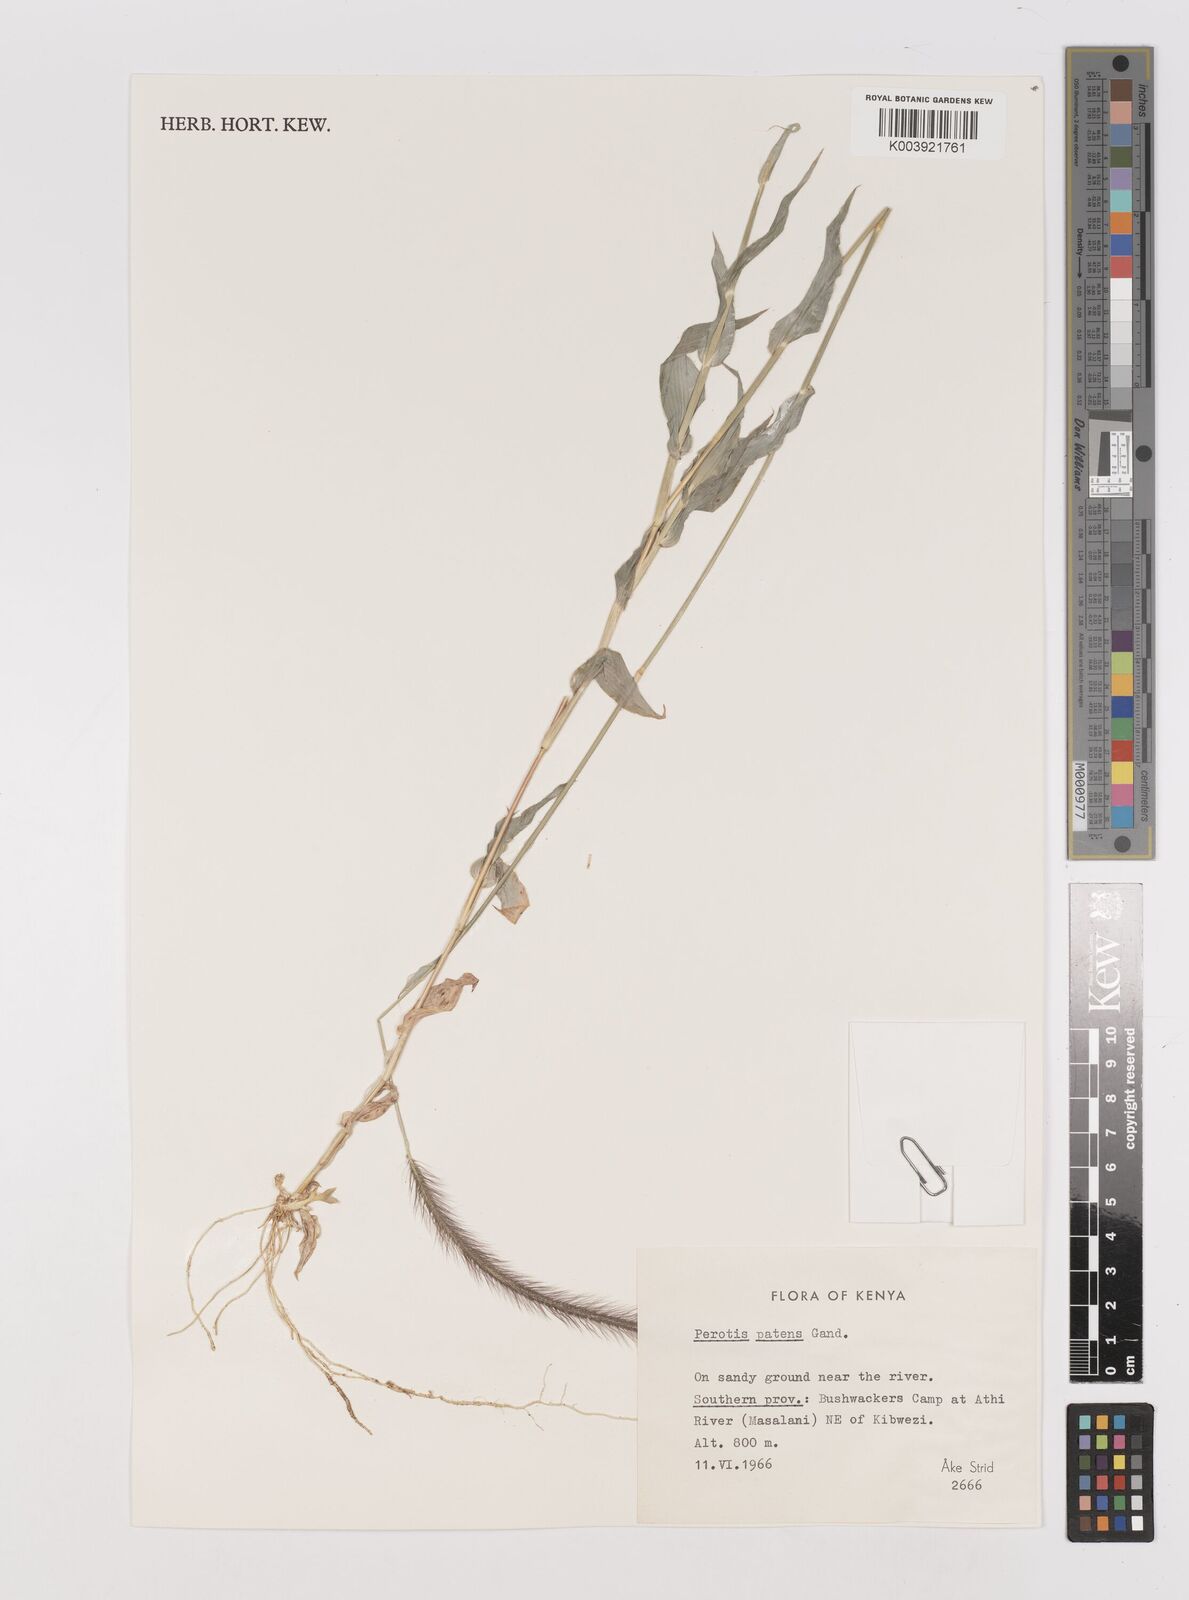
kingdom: Plantae
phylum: Tracheophyta
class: Liliopsida
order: Poales
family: Poaceae
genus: Perotis
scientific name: Perotis patens
